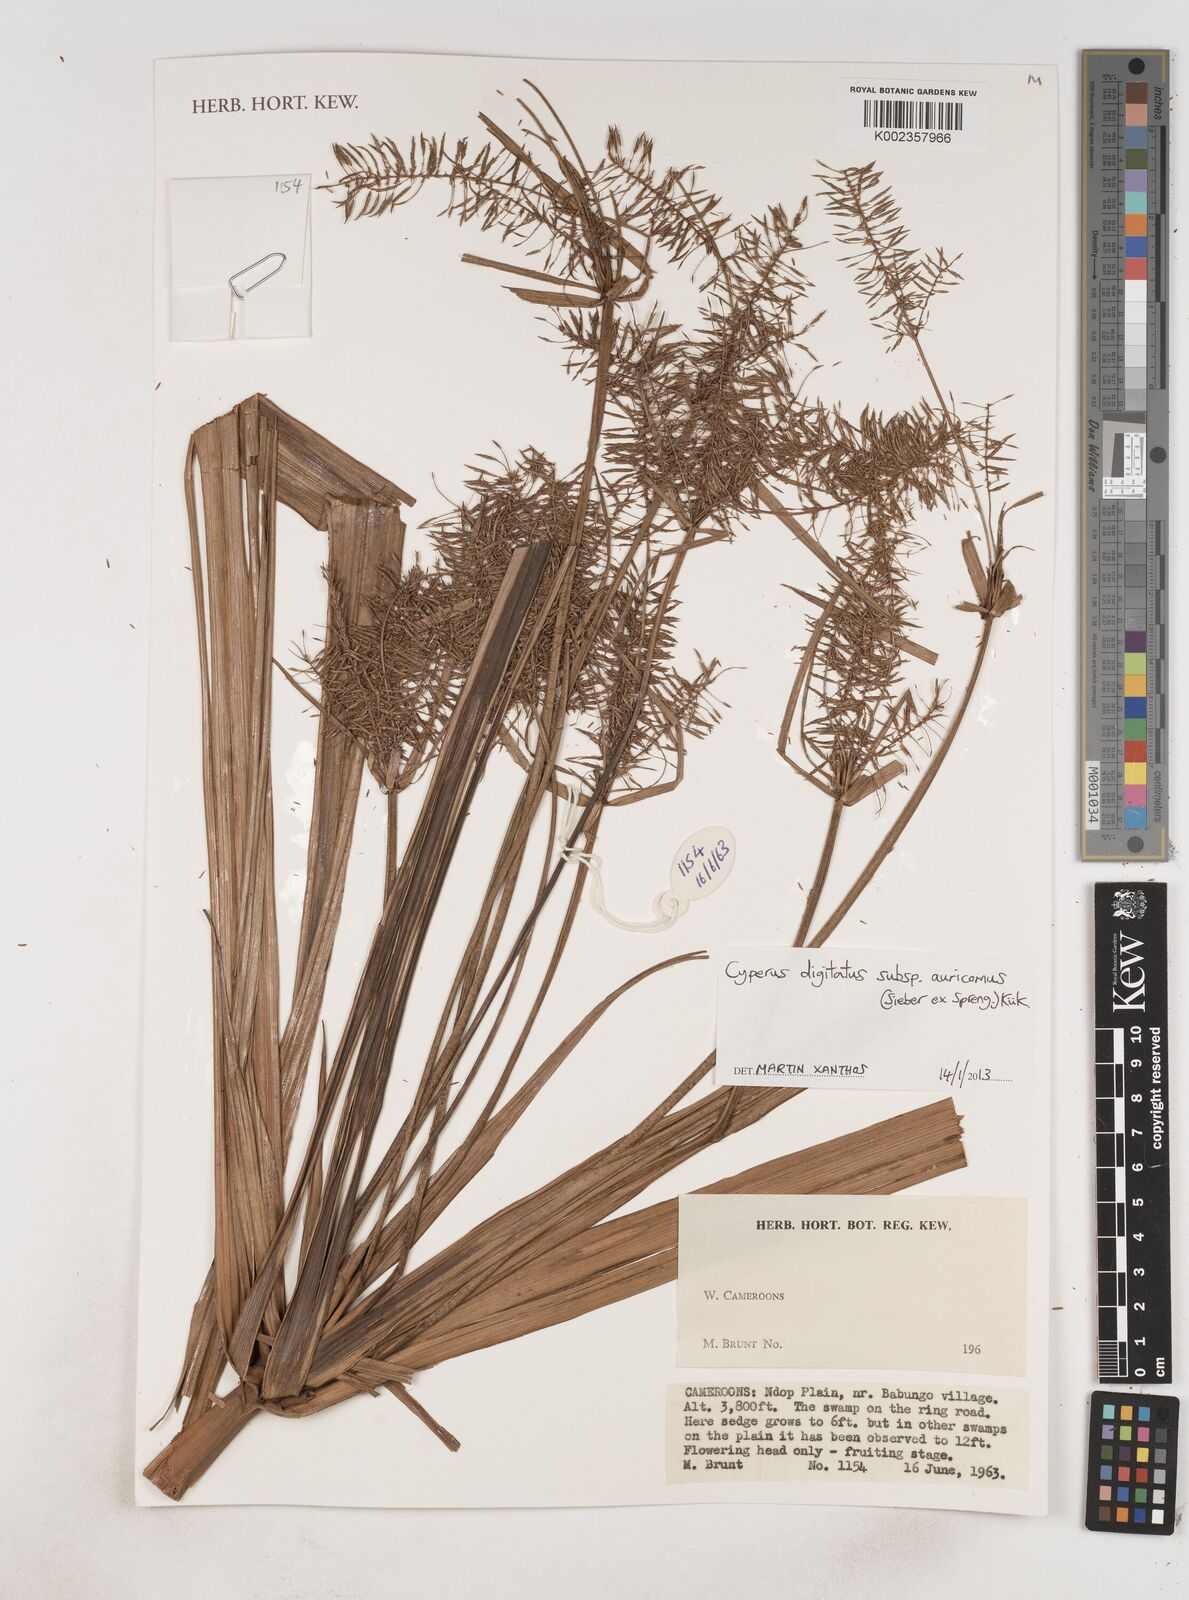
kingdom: Plantae
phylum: Tracheophyta
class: Liliopsida
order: Poales
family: Cyperaceae
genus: Cyperus
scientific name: Cyperus digitatus
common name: Finger flatsedge
